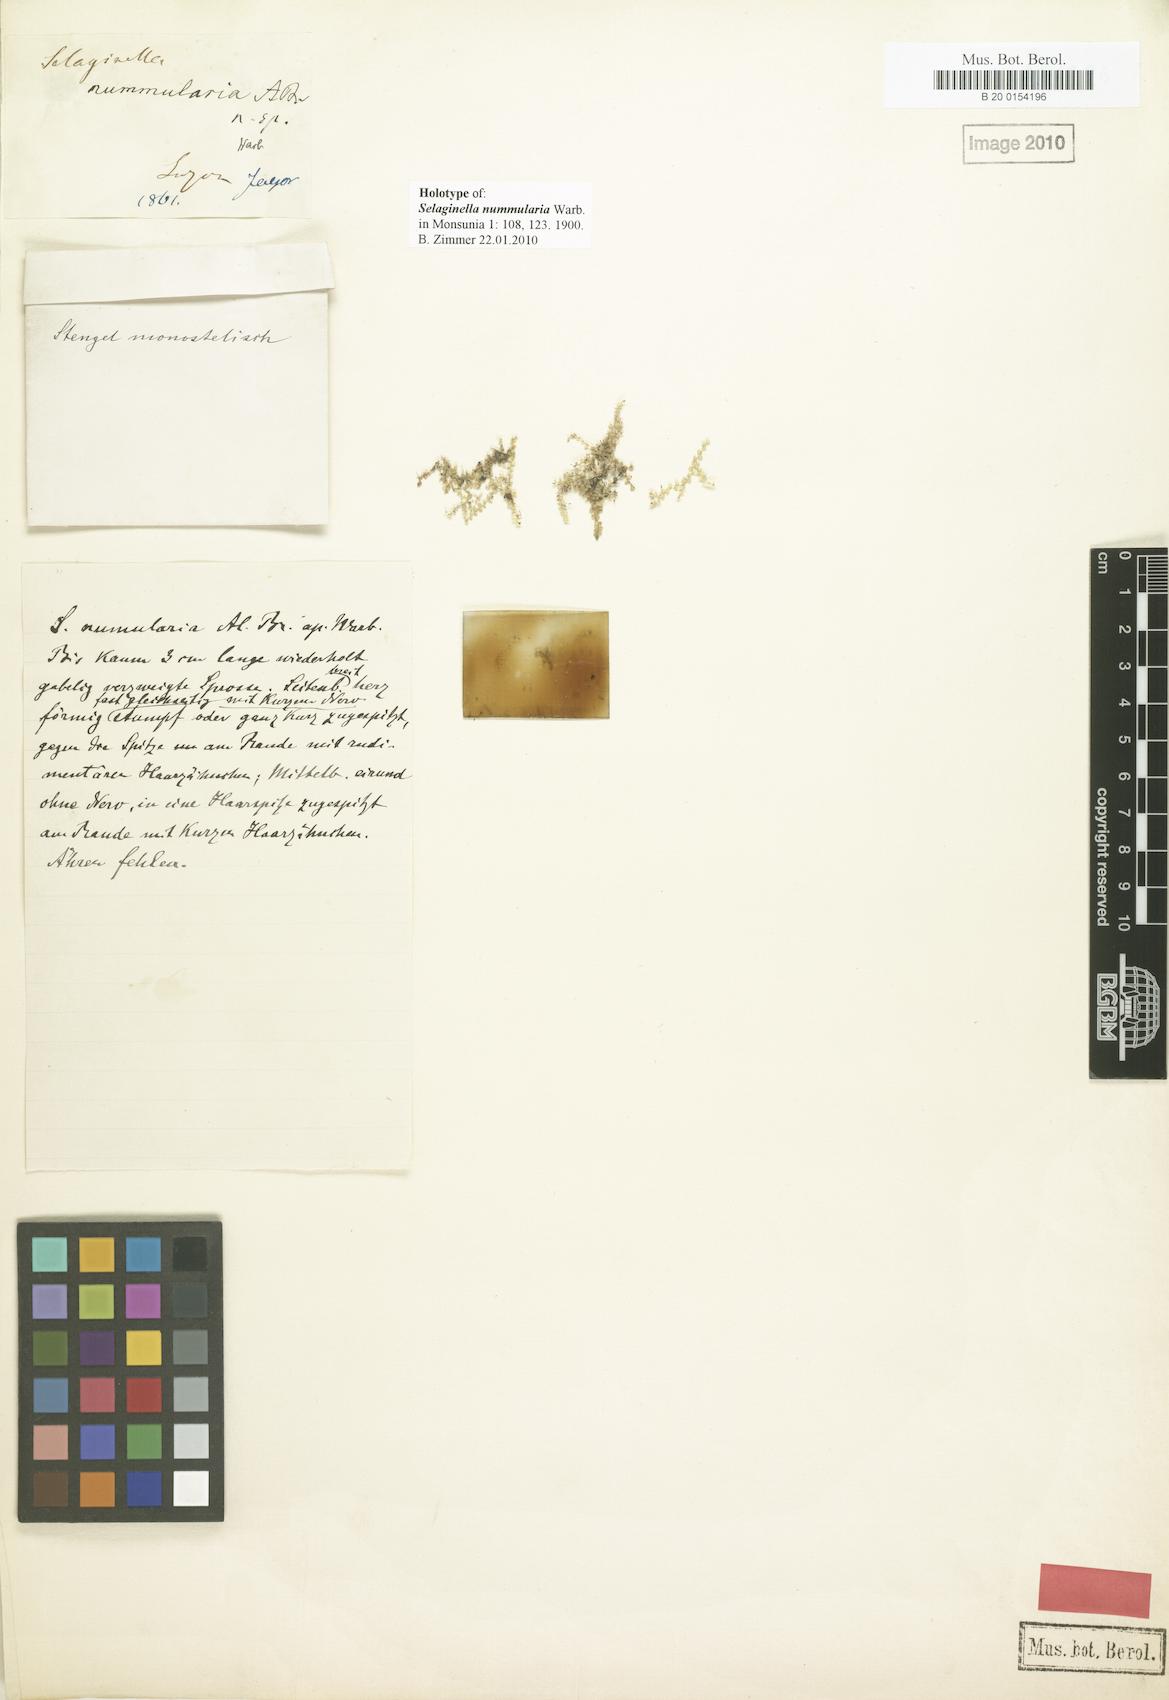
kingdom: Plantae
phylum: Tracheophyta
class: Lycopodiopsida
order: Selaginellales
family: Selaginellaceae
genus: Selaginella
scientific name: Selaginella nummularia
